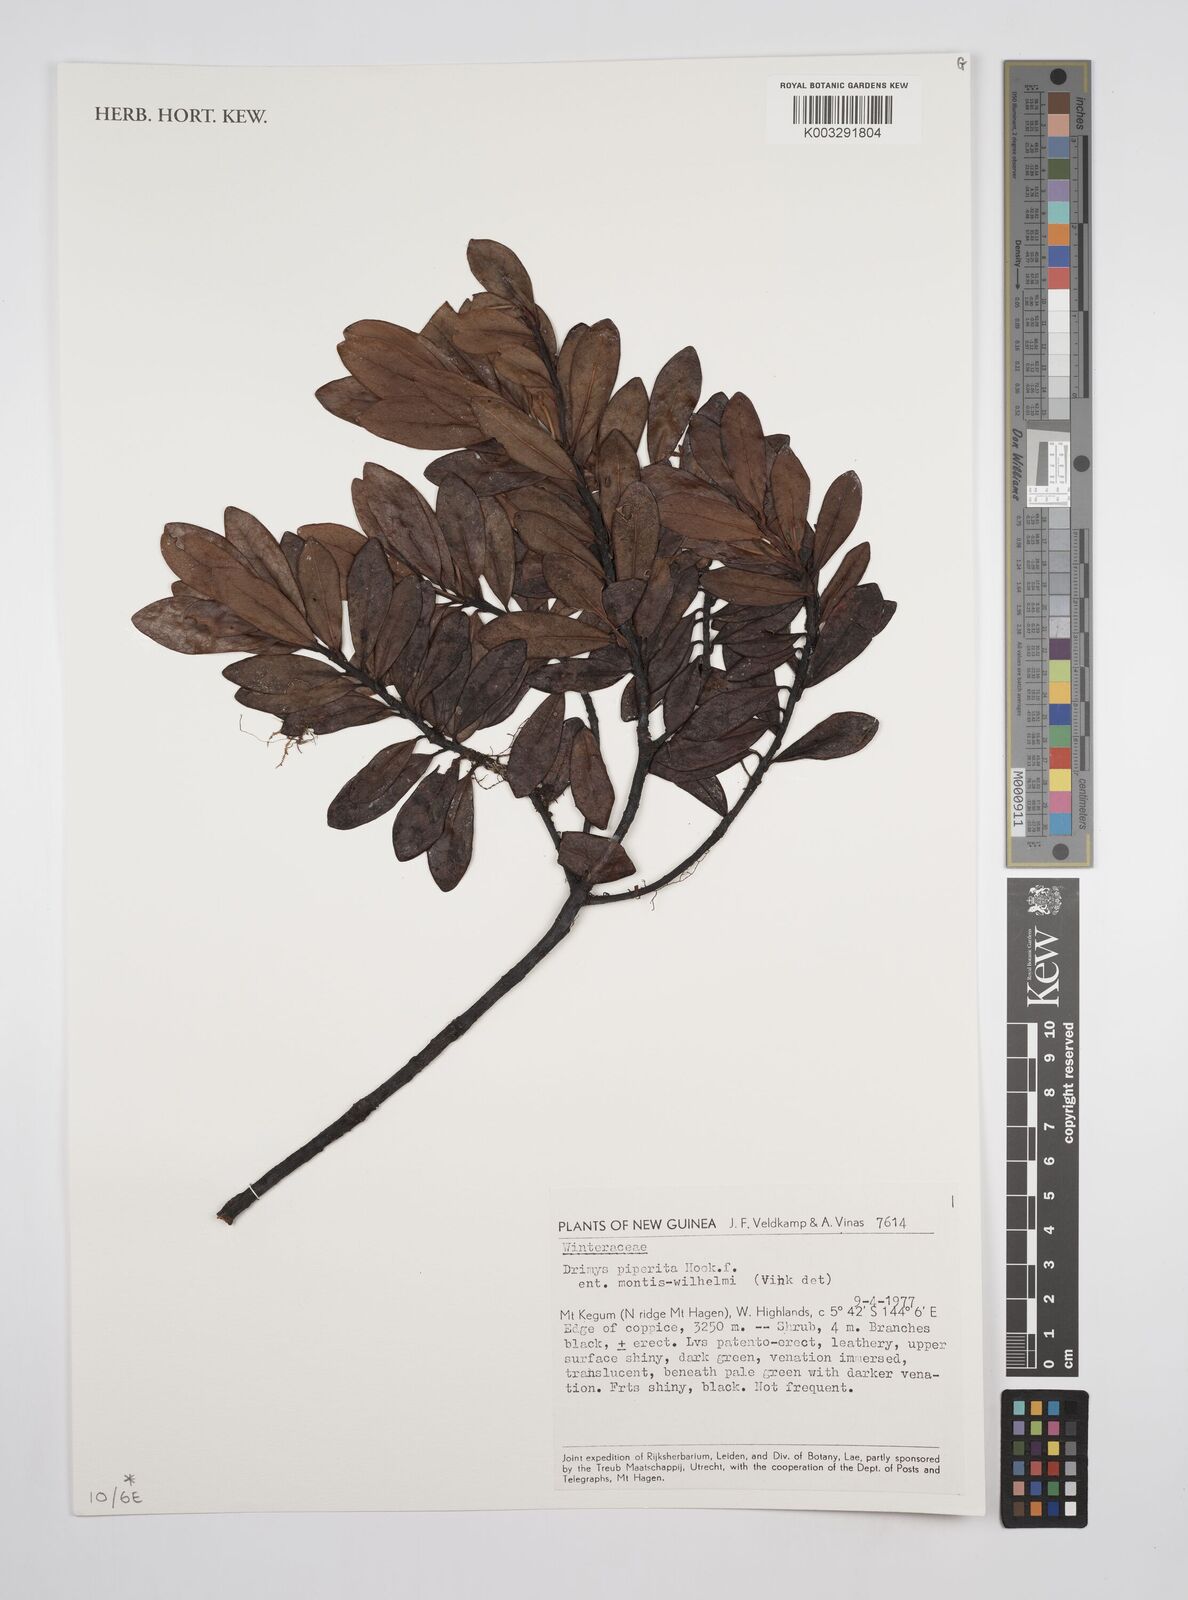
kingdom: Plantae
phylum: Tracheophyta
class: Magnoliopsida
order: Canellales
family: Winteraceae
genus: Drimys
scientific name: Drimys piperita
